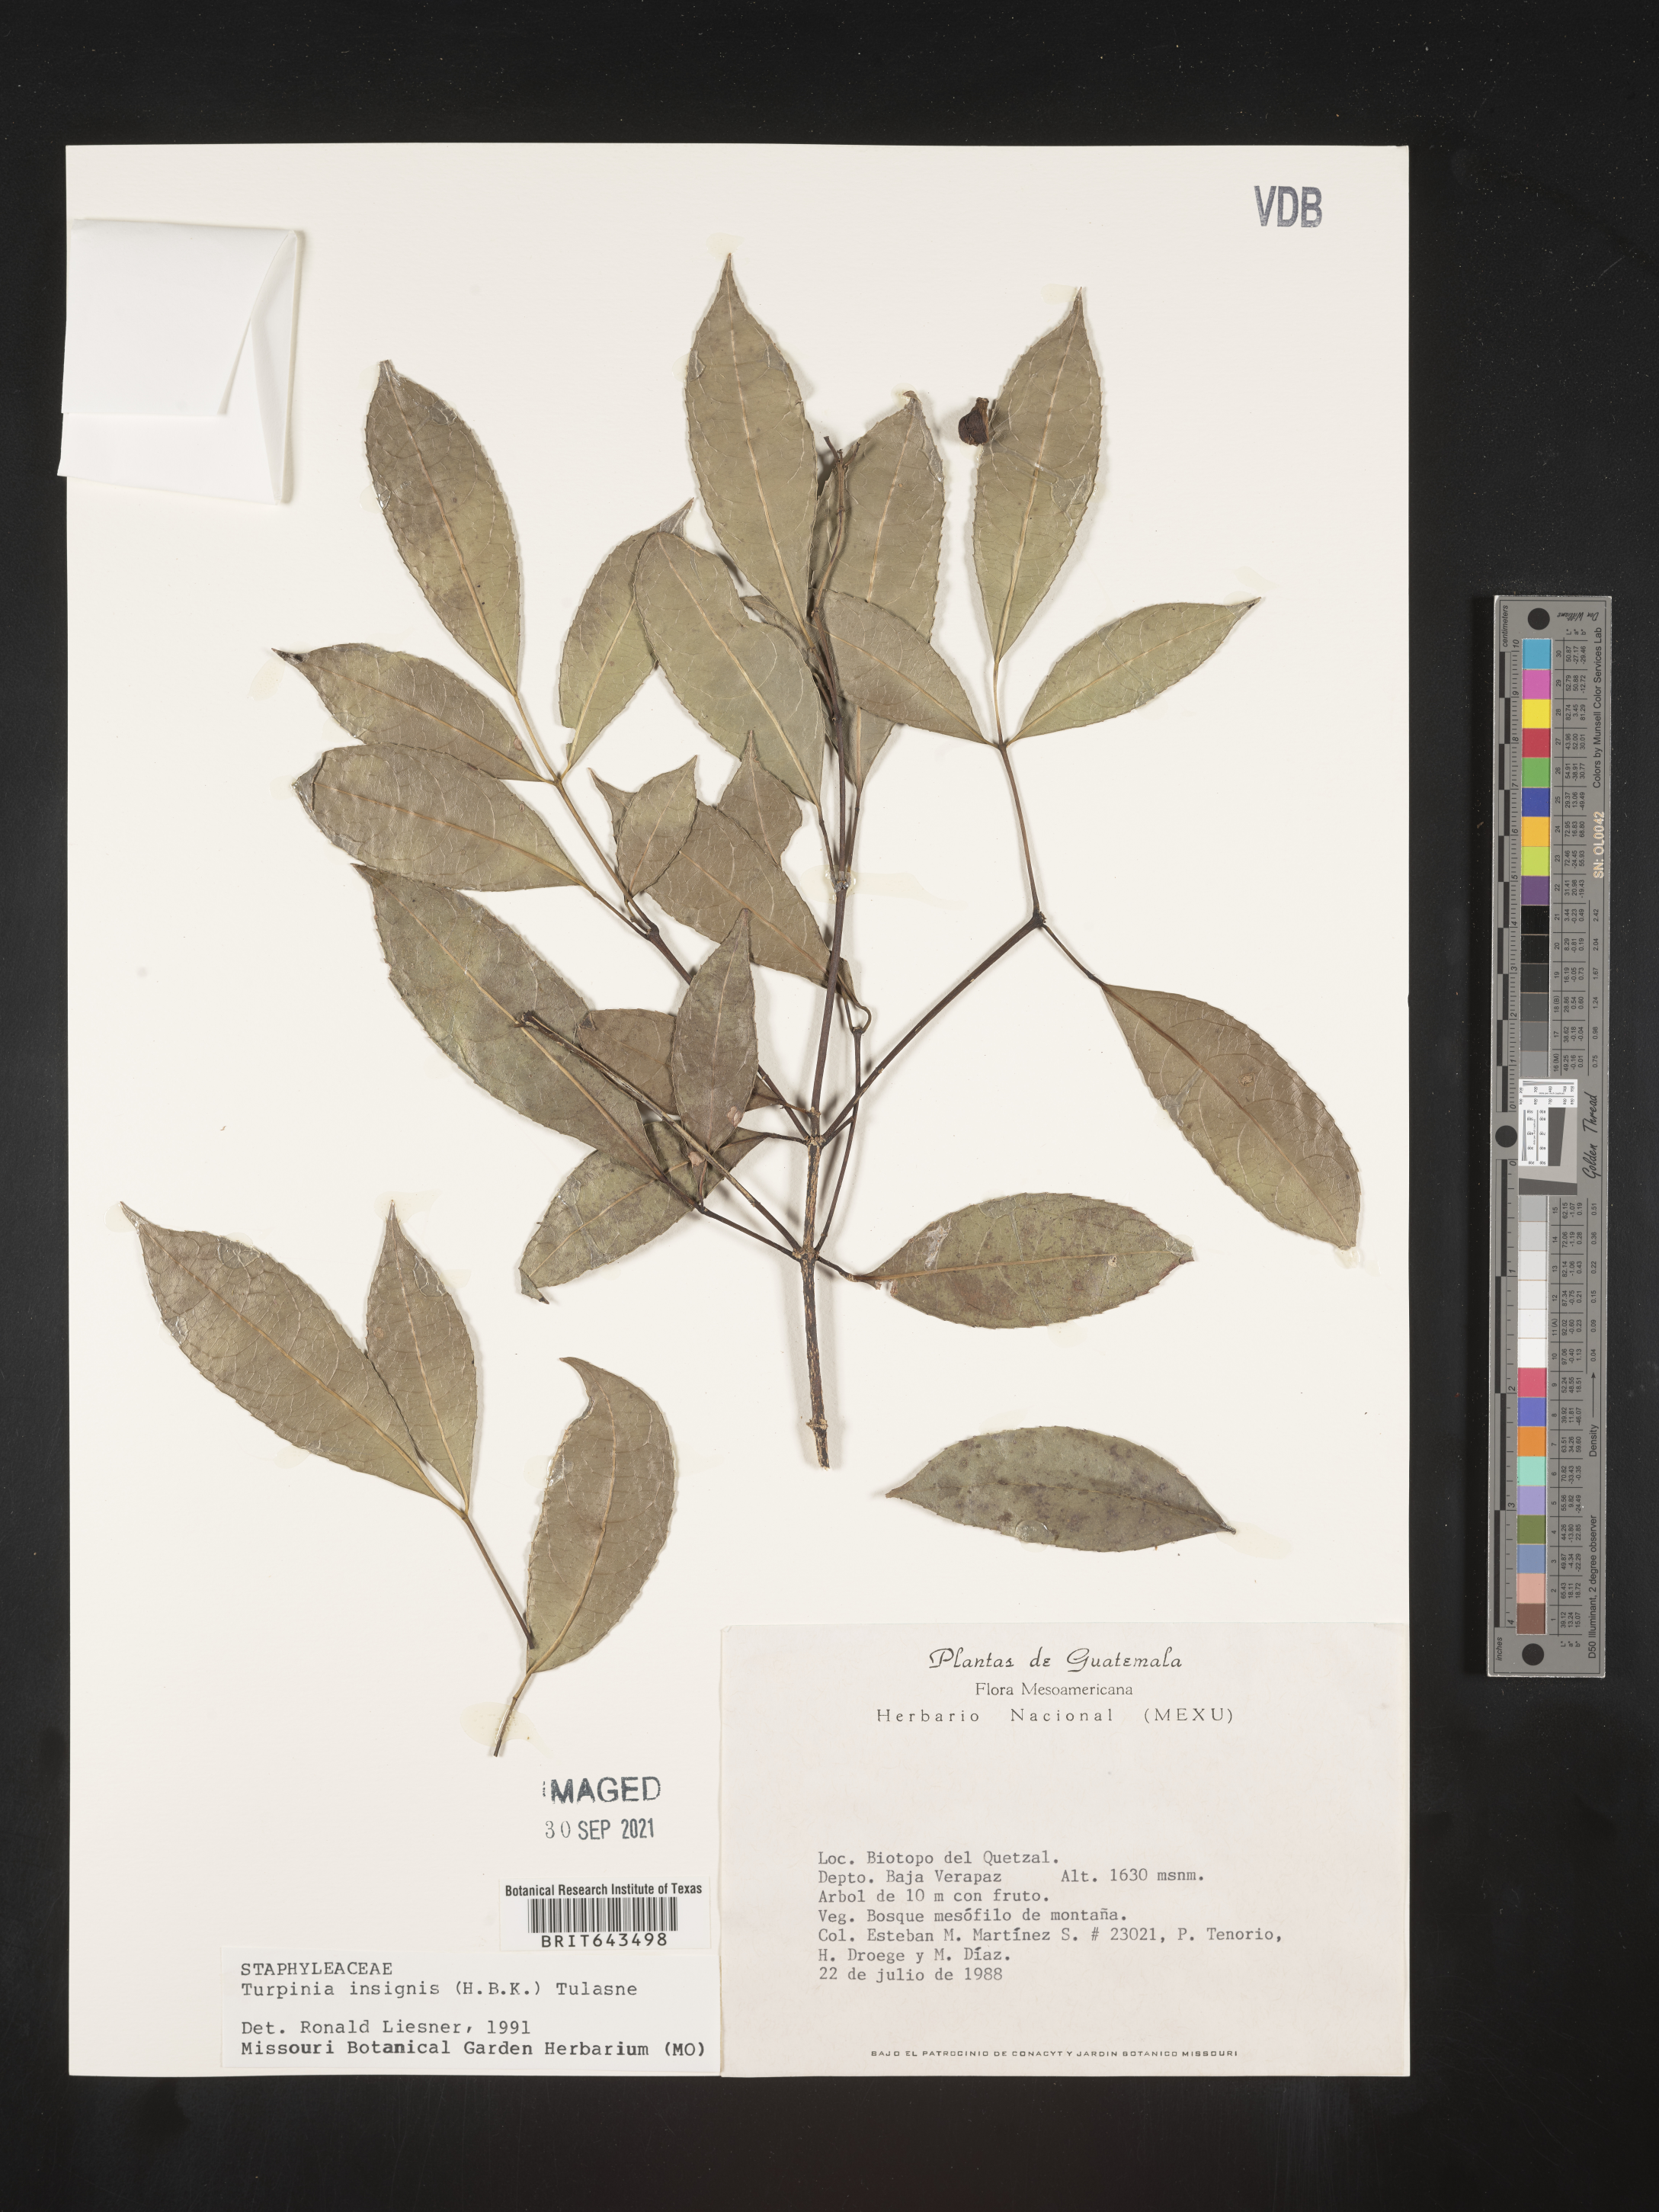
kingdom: Plantae
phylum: Tracheophyta
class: Magnoliopsida
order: Crossosomatales
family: Staphyleaceae
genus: Turpinia
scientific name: Turpinia
